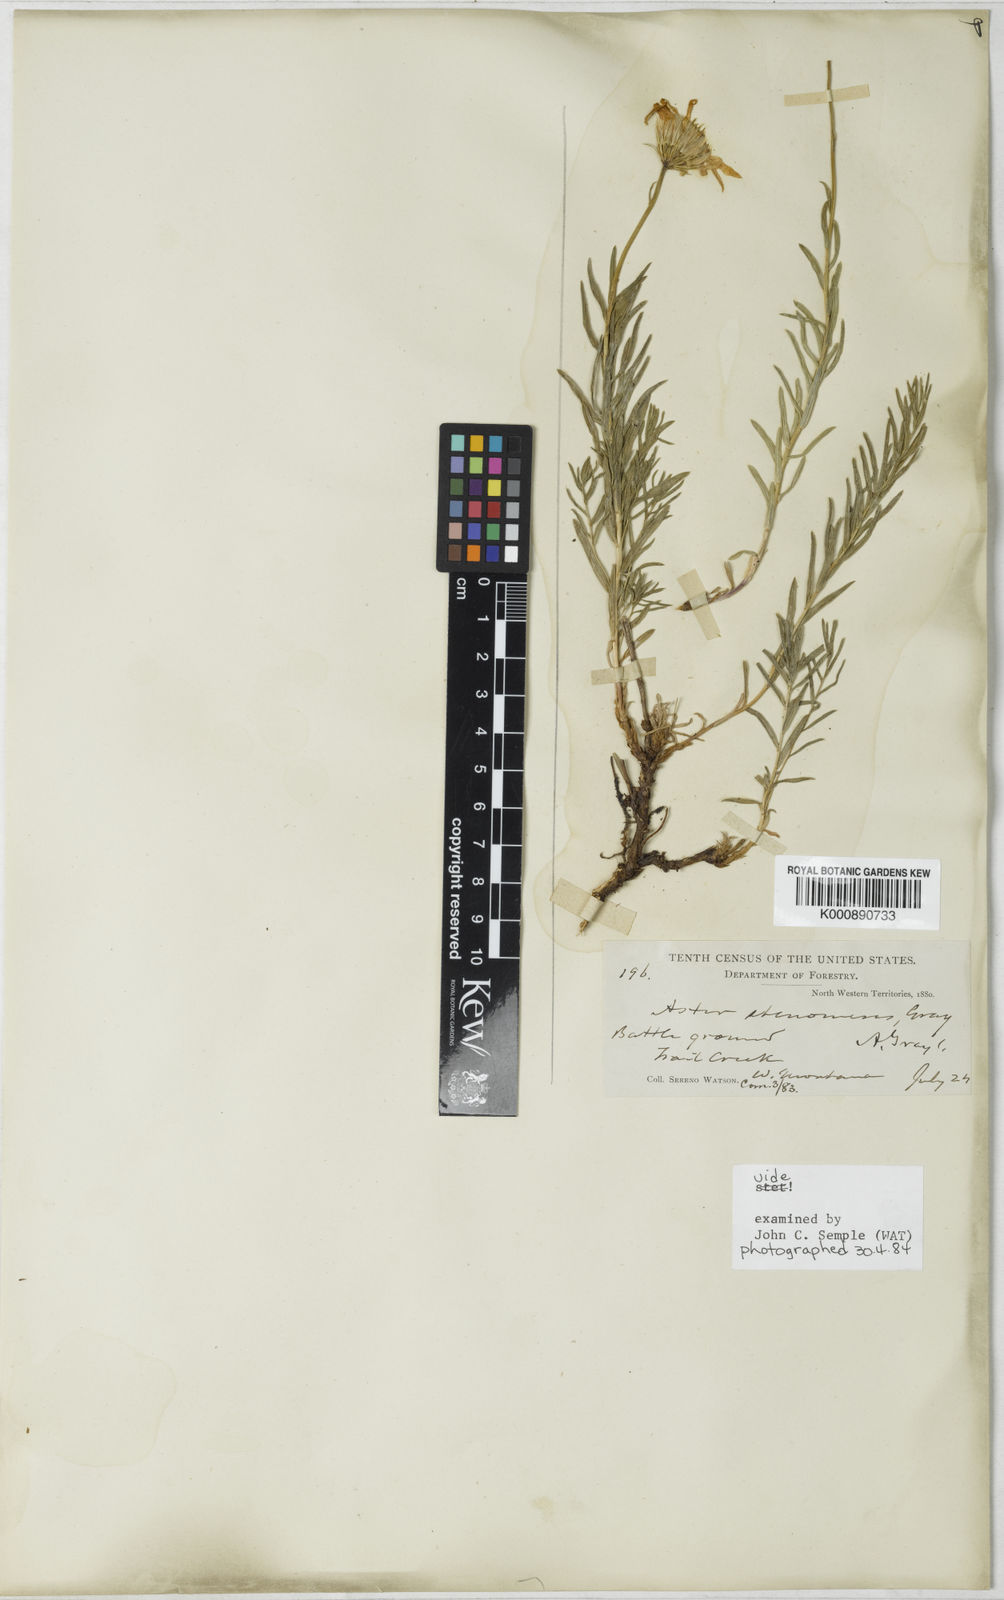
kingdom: Plantae
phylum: Tracheophyta
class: Magnoliopsida
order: Asterales
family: Asteraceae
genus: Ionactis
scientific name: Ionactis stenomeres
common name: Rocky mountain ankle-aster
